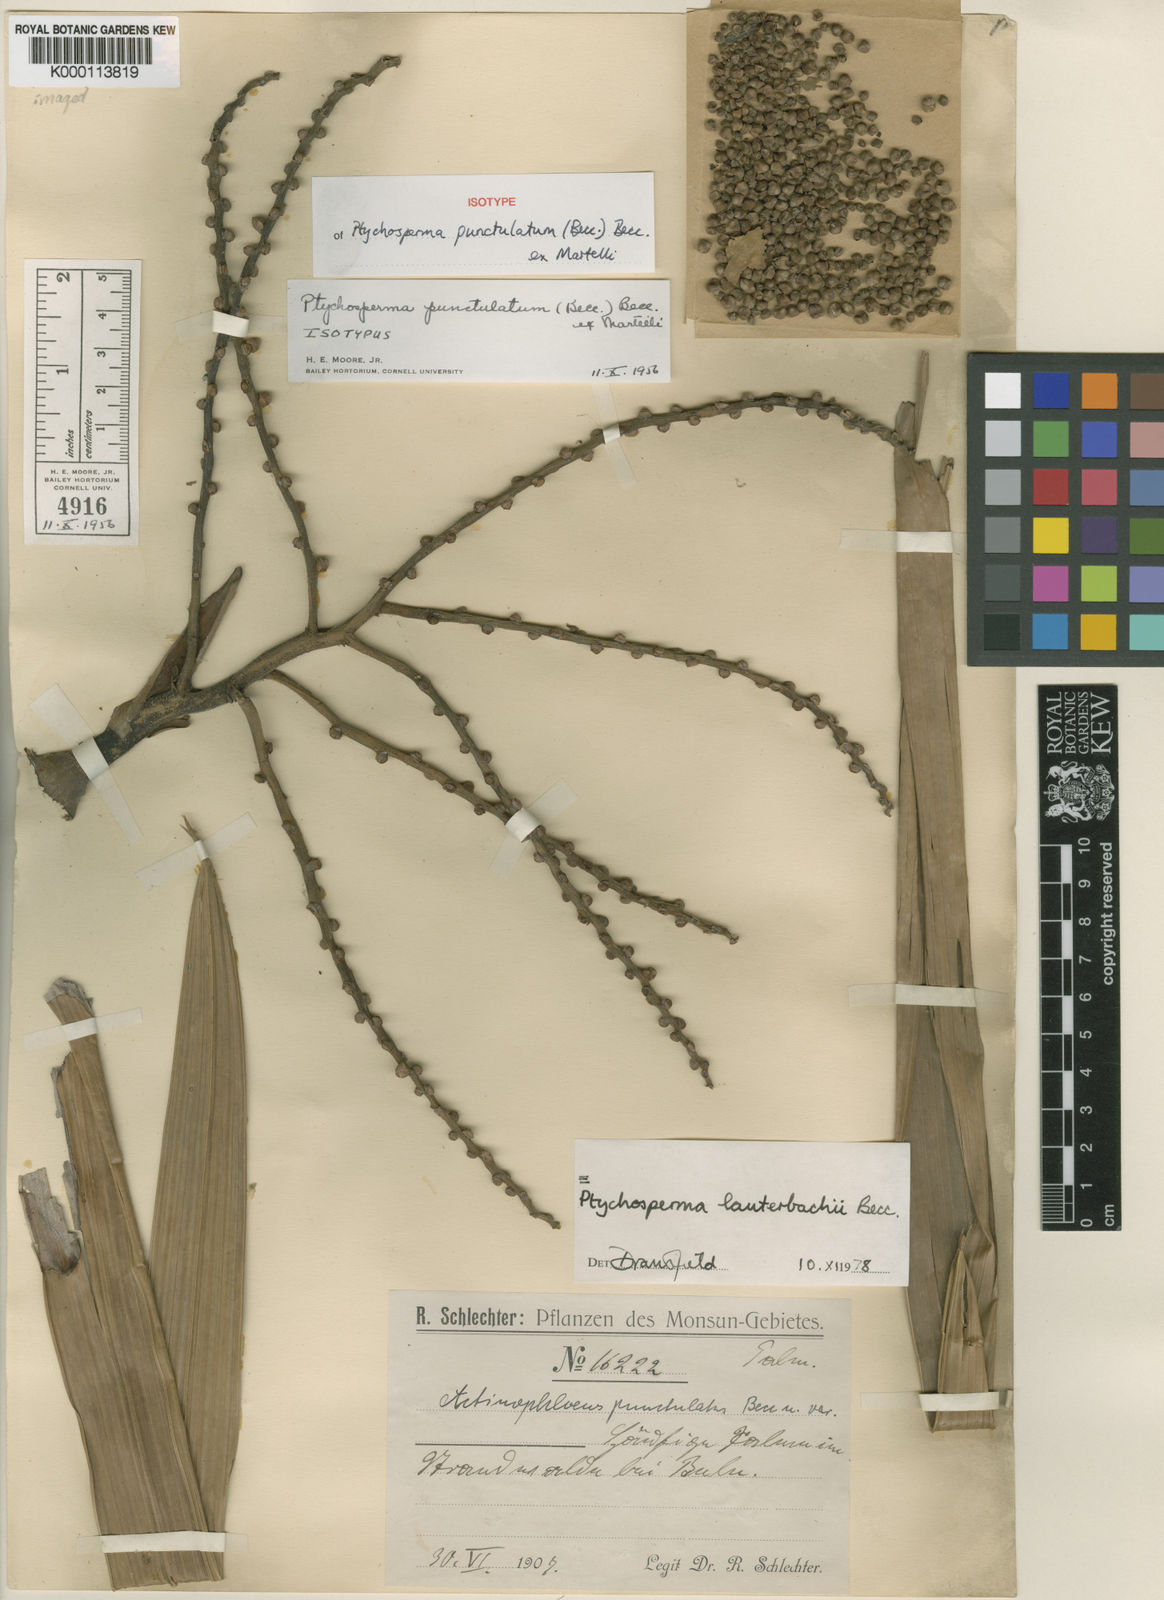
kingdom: Plantae
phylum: Tracheophyta
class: Liliopsida
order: Arecales
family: Arecaceae
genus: Ptychosperma
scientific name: Ptychosperma lauterbachii
